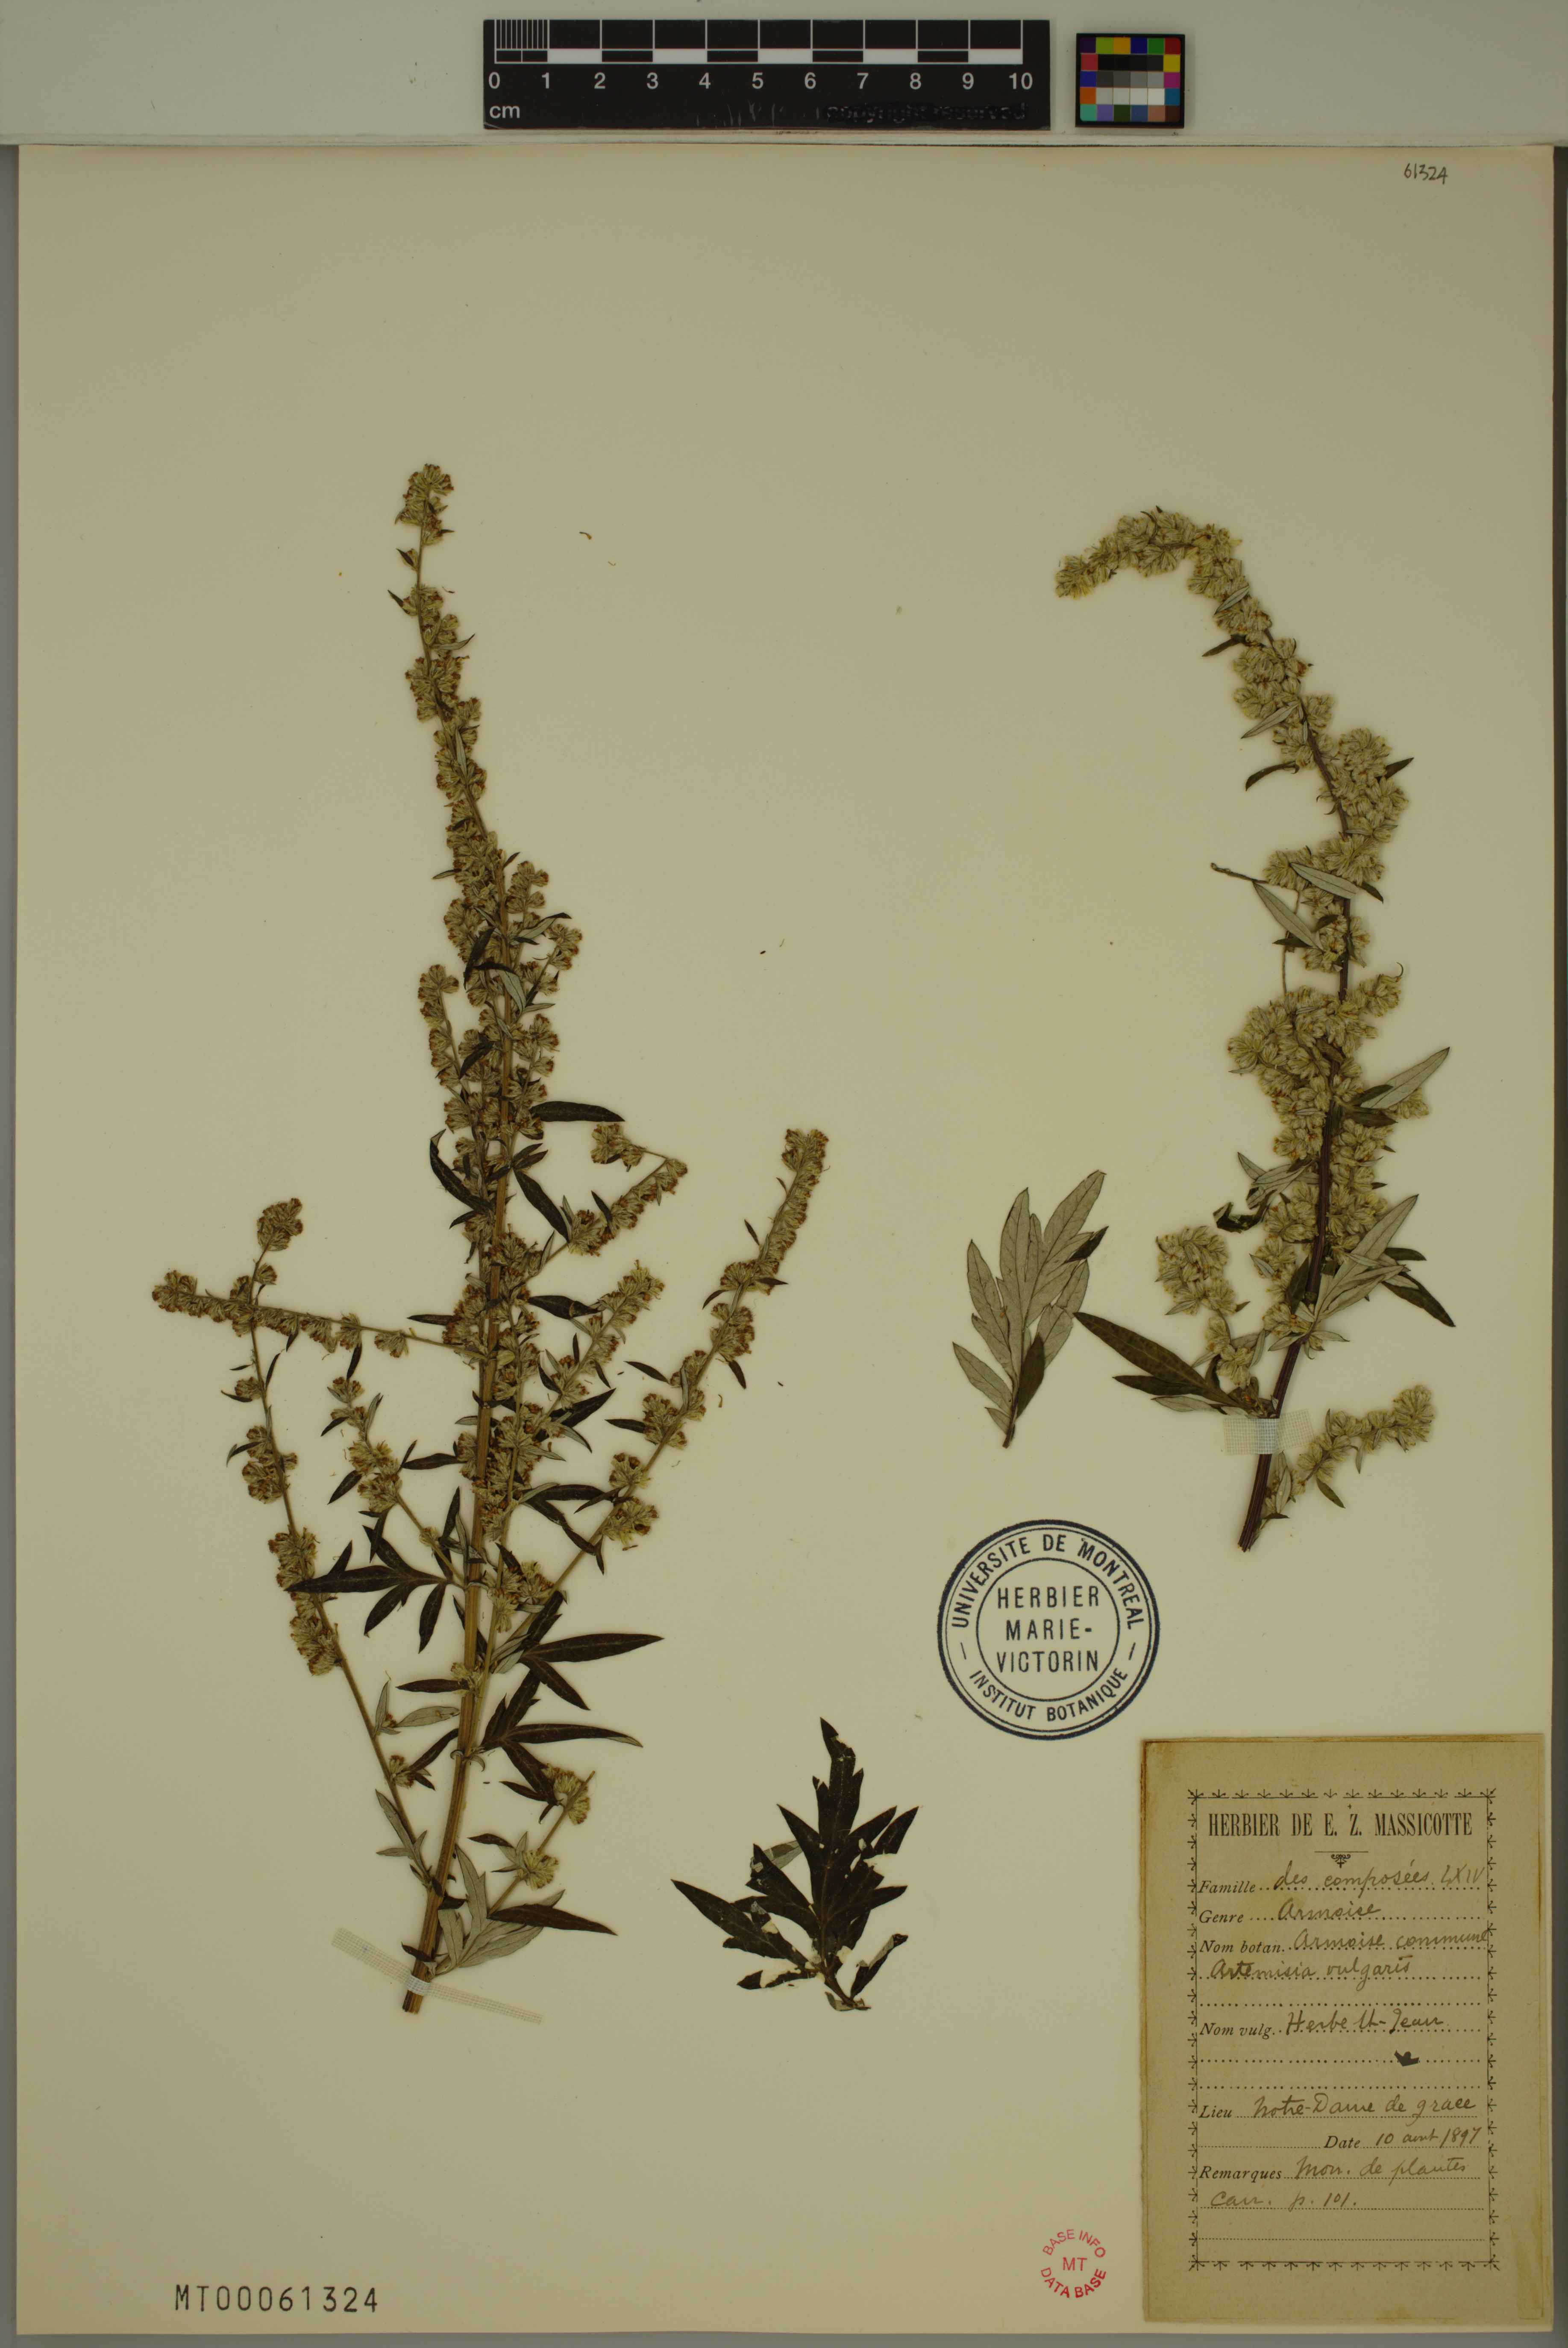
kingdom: Plantae
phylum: Tracheophyta
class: Magnoliopsida
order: Asterales
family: Asteraceae
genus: Artemisia
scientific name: Artemisia vulgaris
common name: Mugwort
